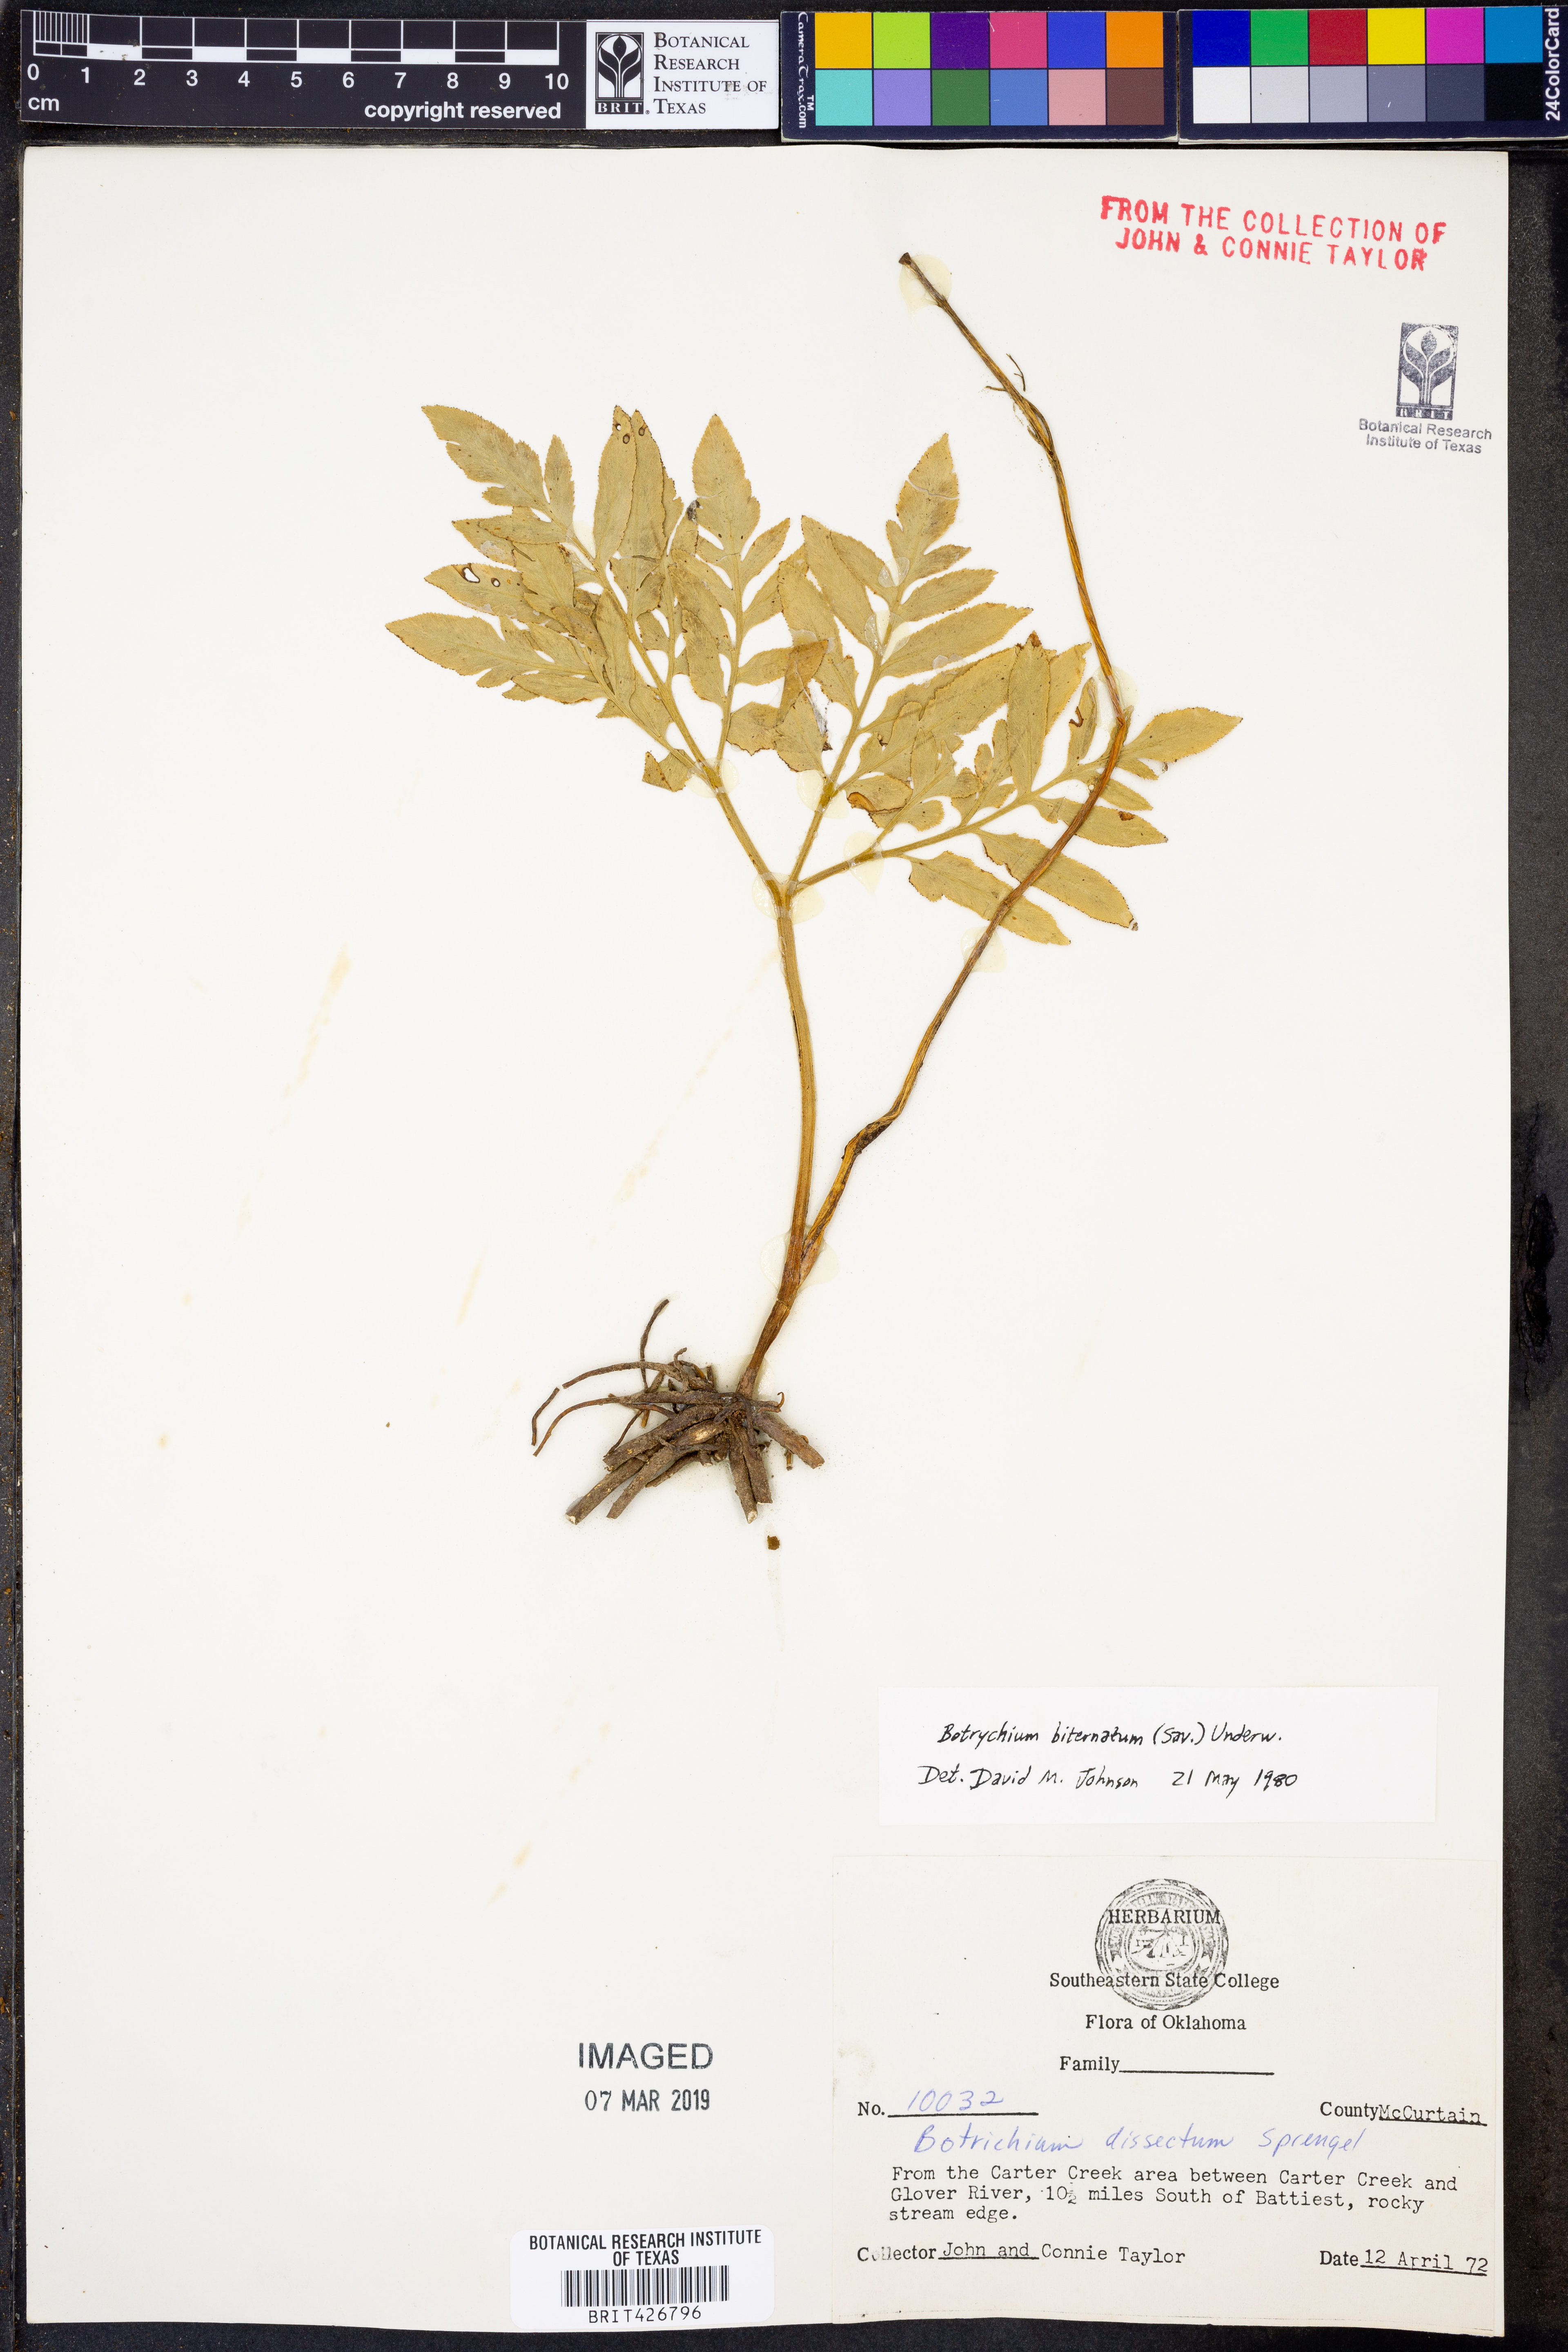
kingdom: Plantae
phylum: Tracheophyta
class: Polypodiopsida
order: Ophioglossales
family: Ophioglossaceae
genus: Sceptridium
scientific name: Sceptridium biternatum
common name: Sparse-lobed grapefern
